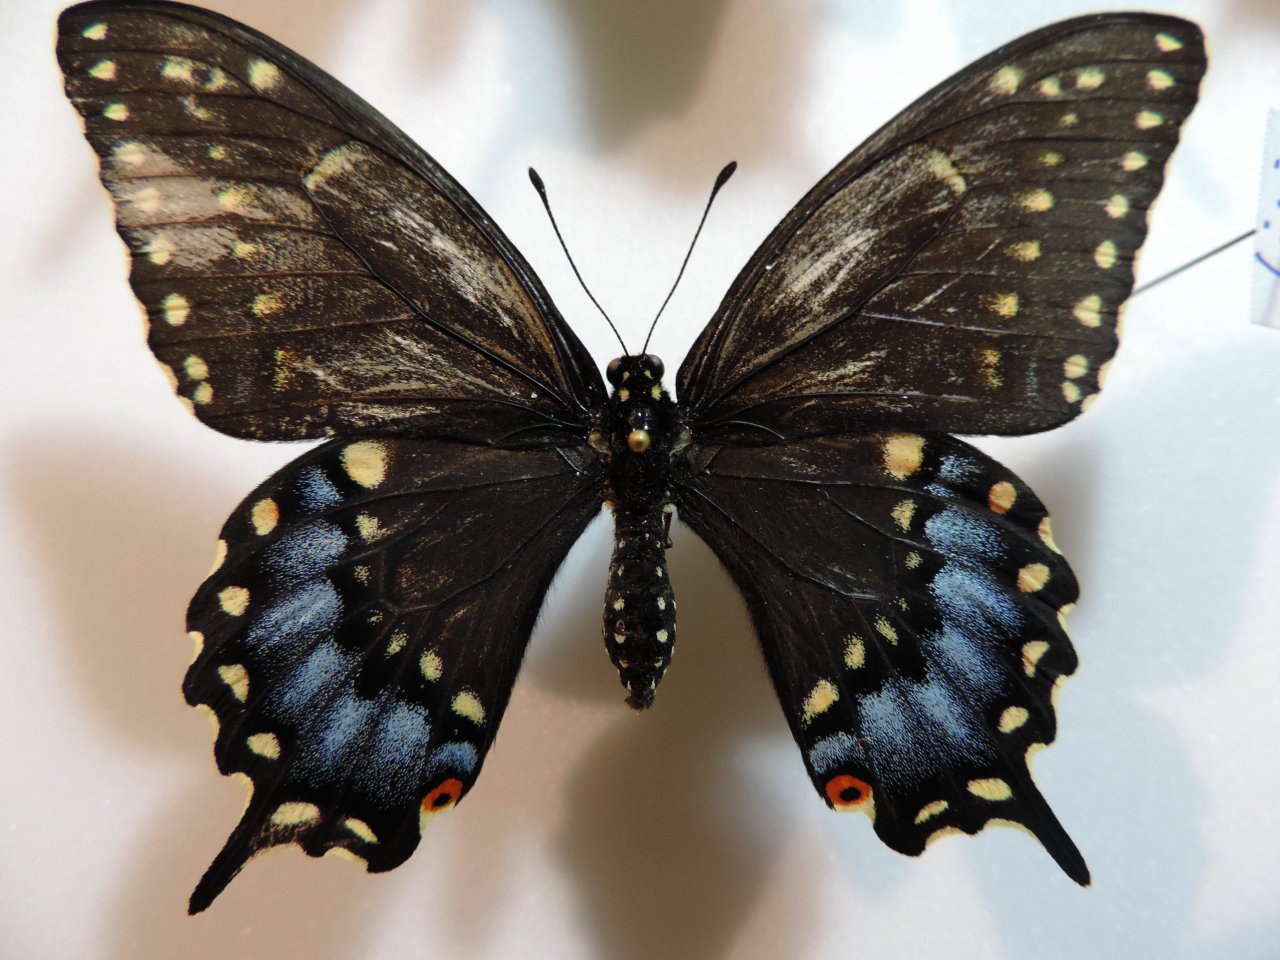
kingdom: Animalia
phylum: Arthropoda
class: Insecta
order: Lepidoptera
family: Papilionidae
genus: Papilio
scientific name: Papilio polyxenes
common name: Black Swallowtail
